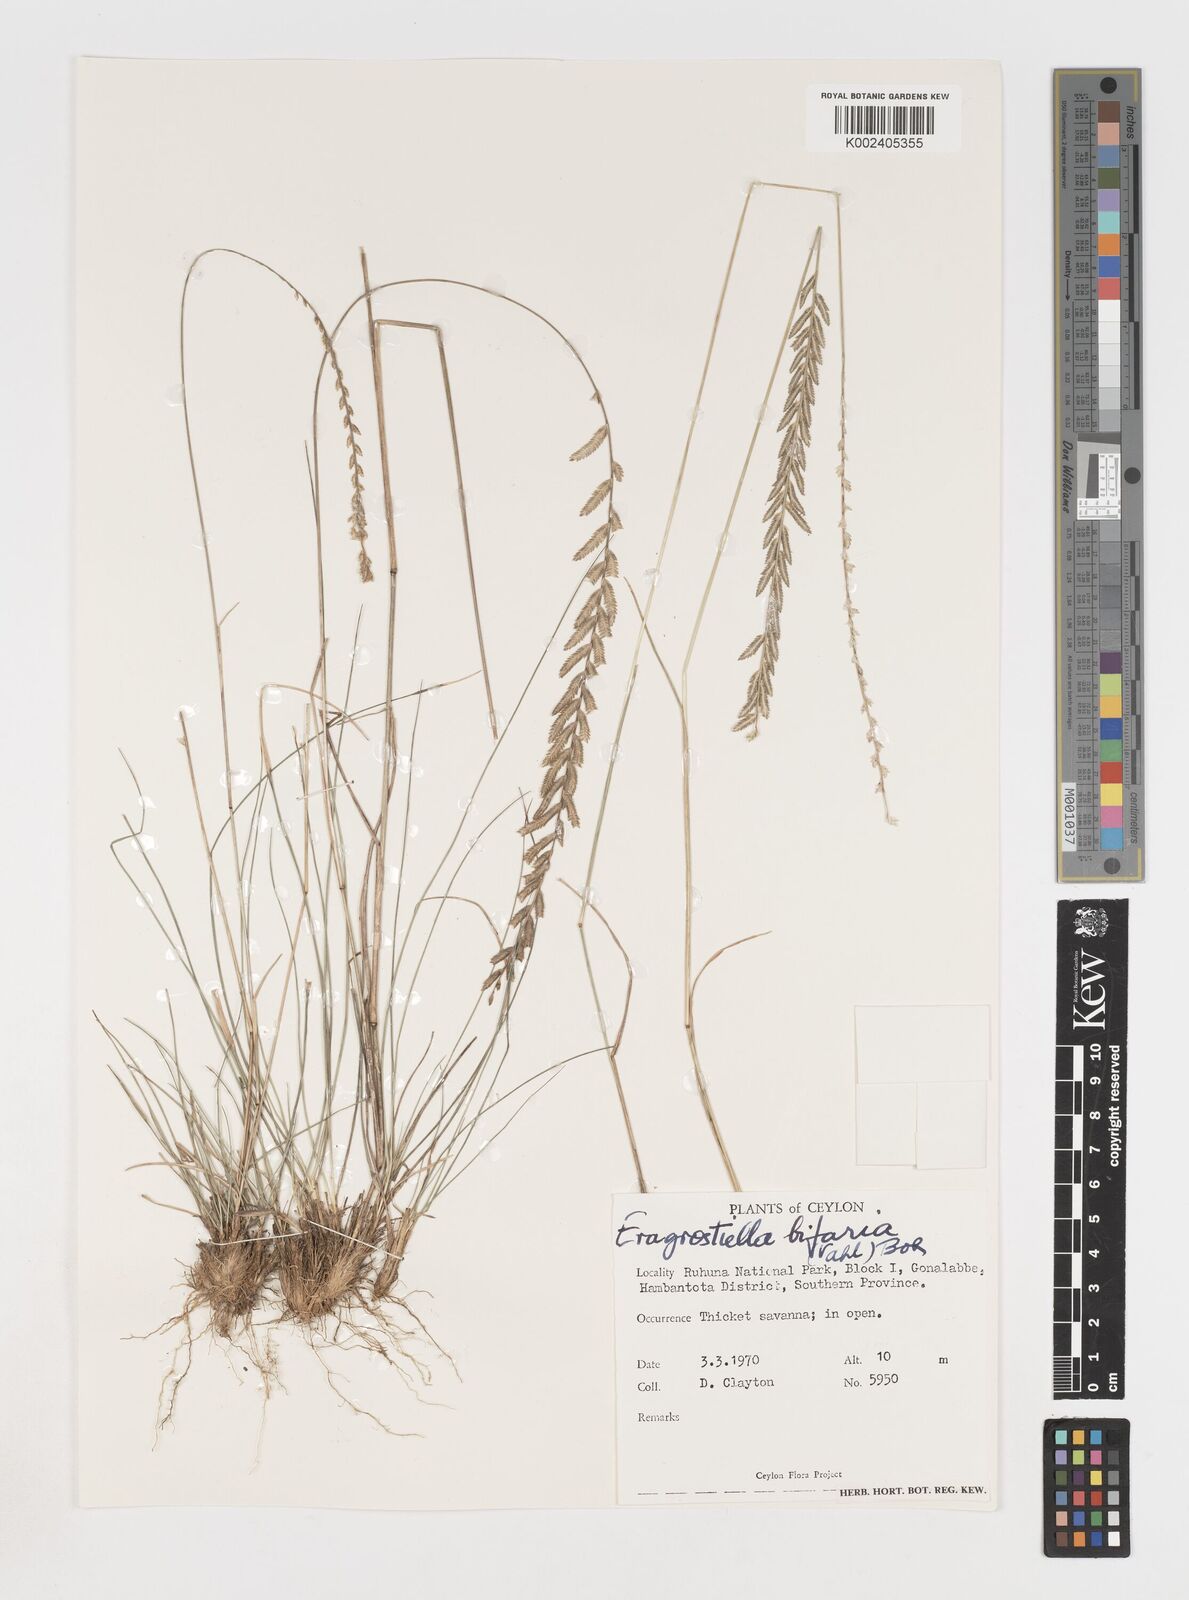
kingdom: Plantae
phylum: Tracheophyta
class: Liliopsida
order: Poales
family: Poaceae
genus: Eragrostiella
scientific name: Eragrostiella bifaria
